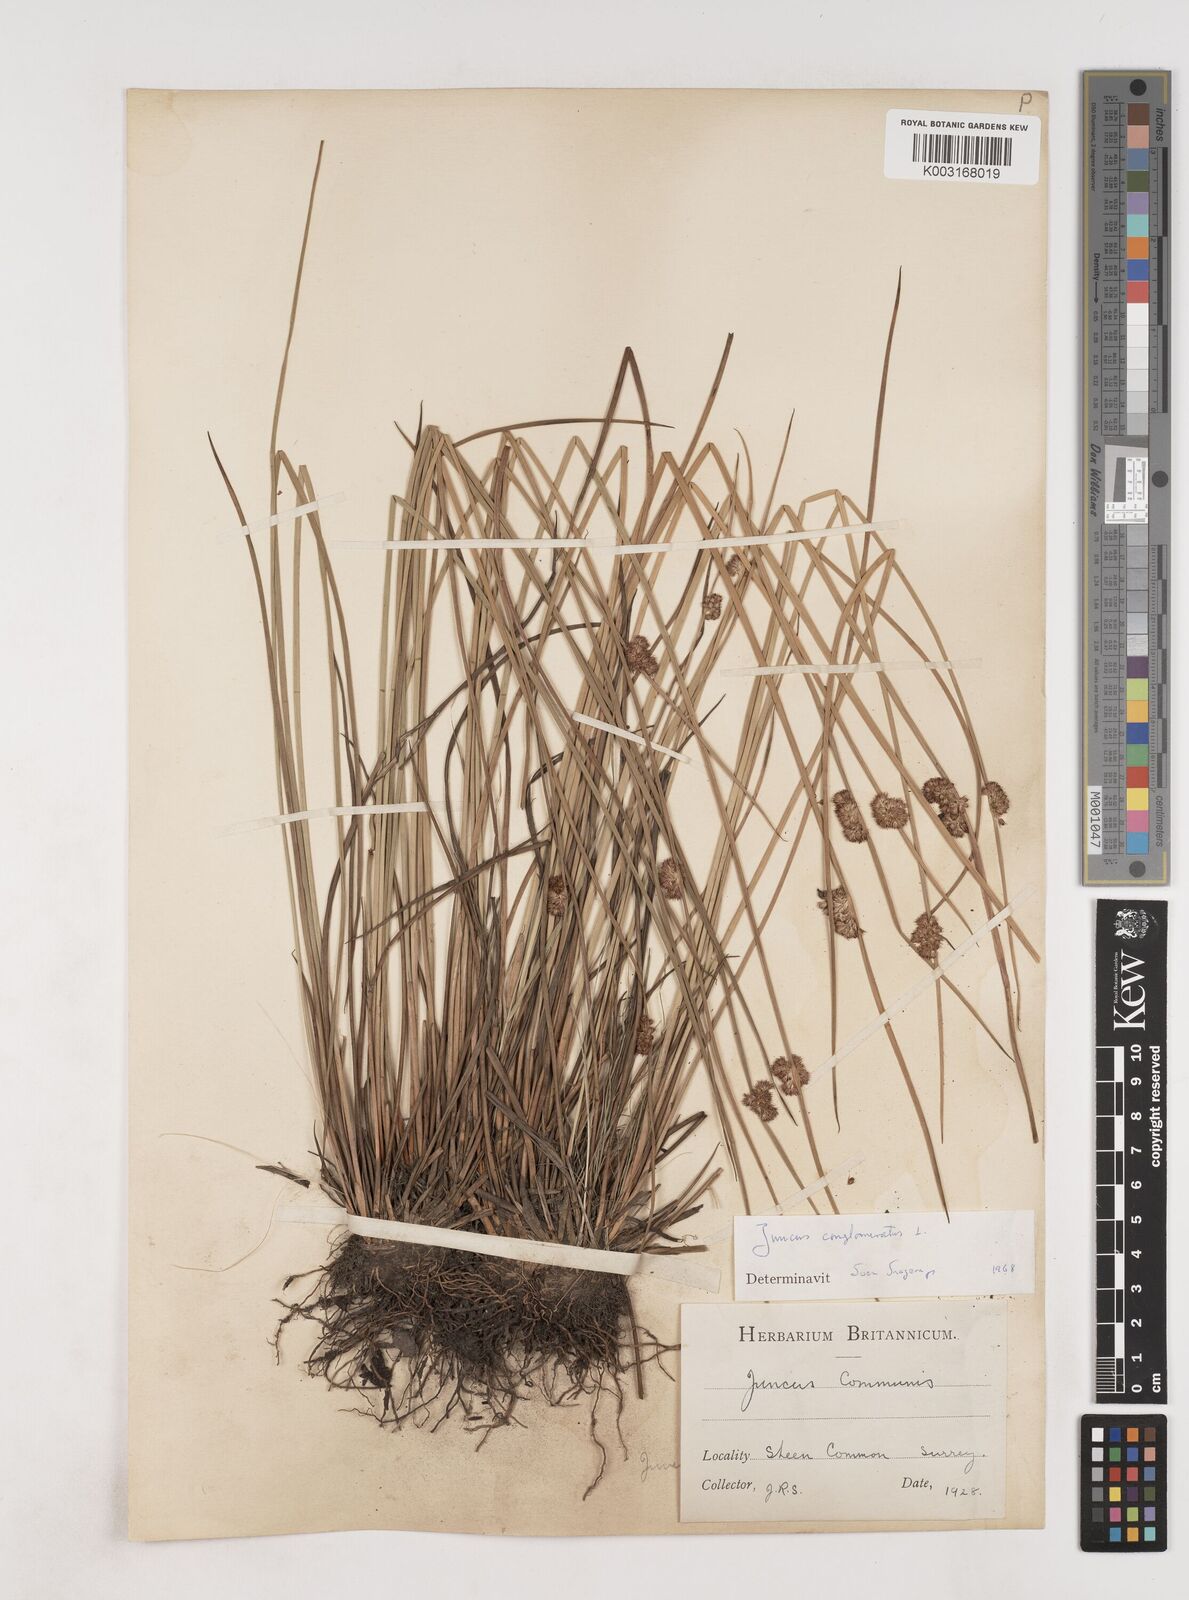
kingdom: Plantae
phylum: Tracheophyta
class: Liliopsida
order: Poales
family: Juncaceae
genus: Juncus
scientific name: Juncus conglomeratus
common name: Compact rush
